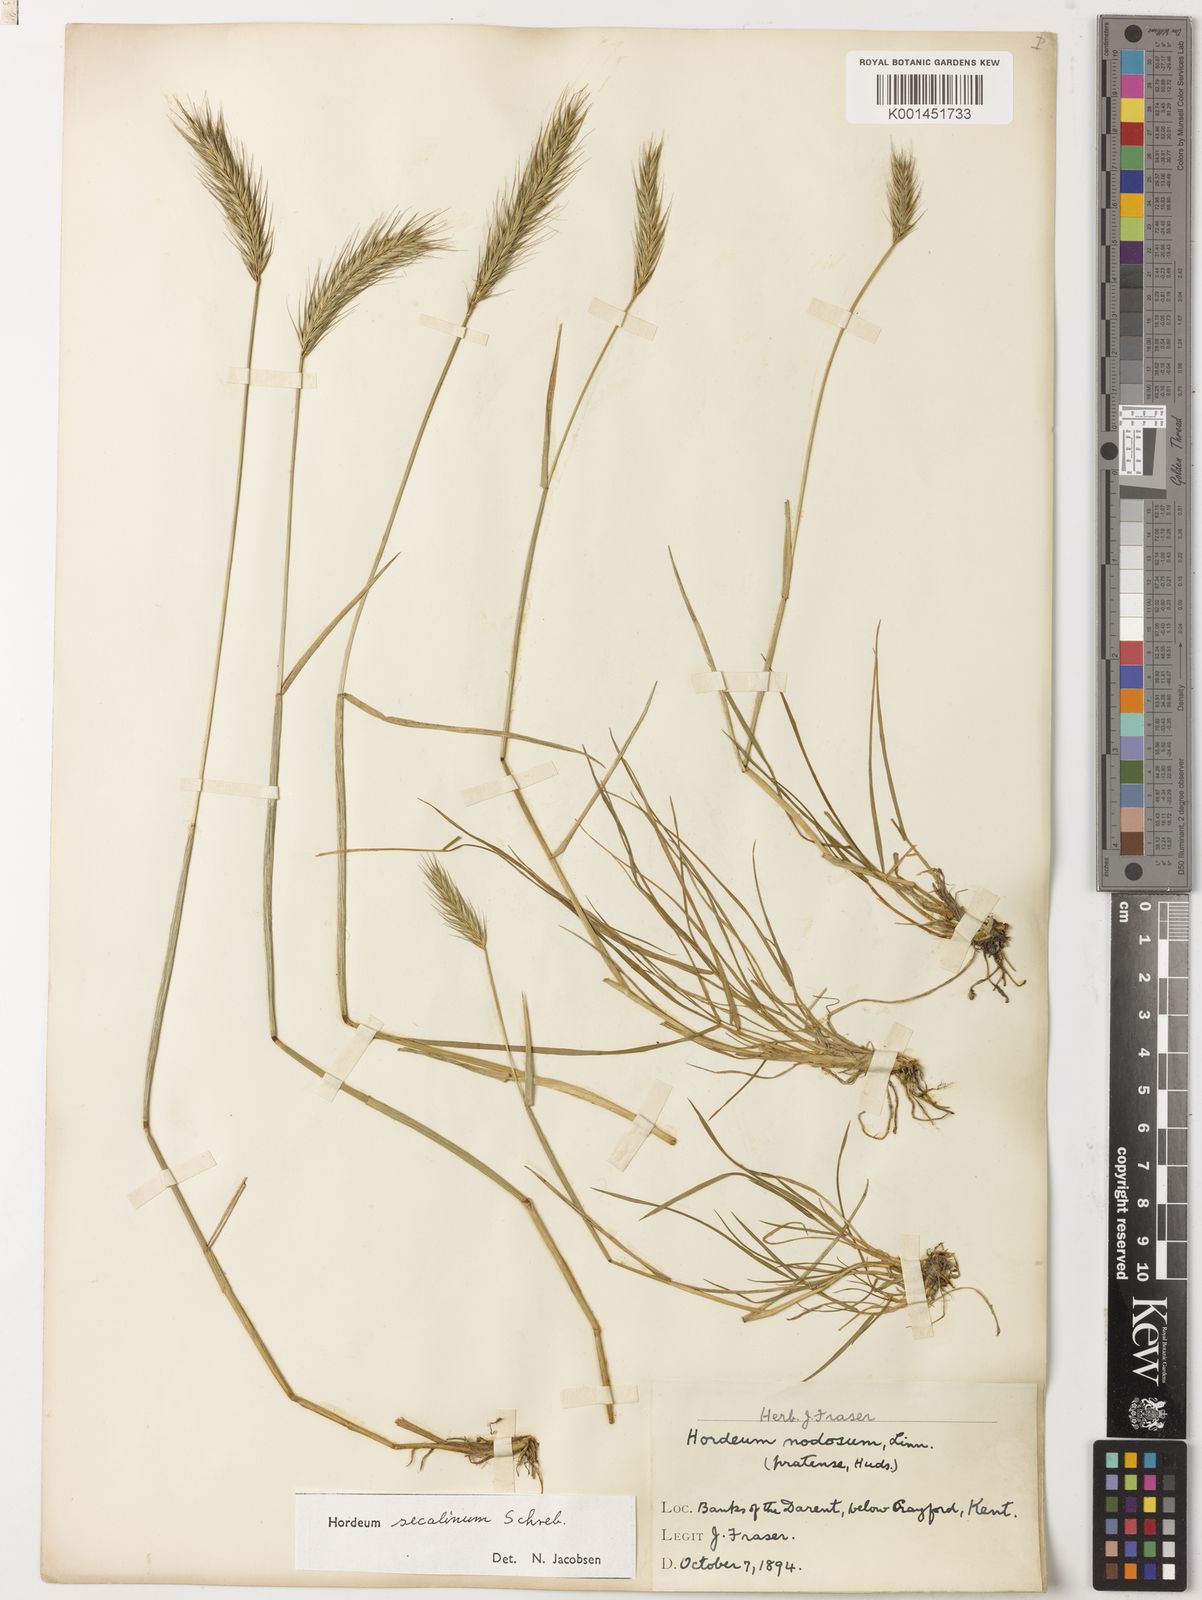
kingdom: Plantae
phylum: Tracheophyta
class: Liliopsida
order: Poales
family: Poaceae
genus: Hordeum
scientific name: Hordeum secalinum
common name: Meadow barley
